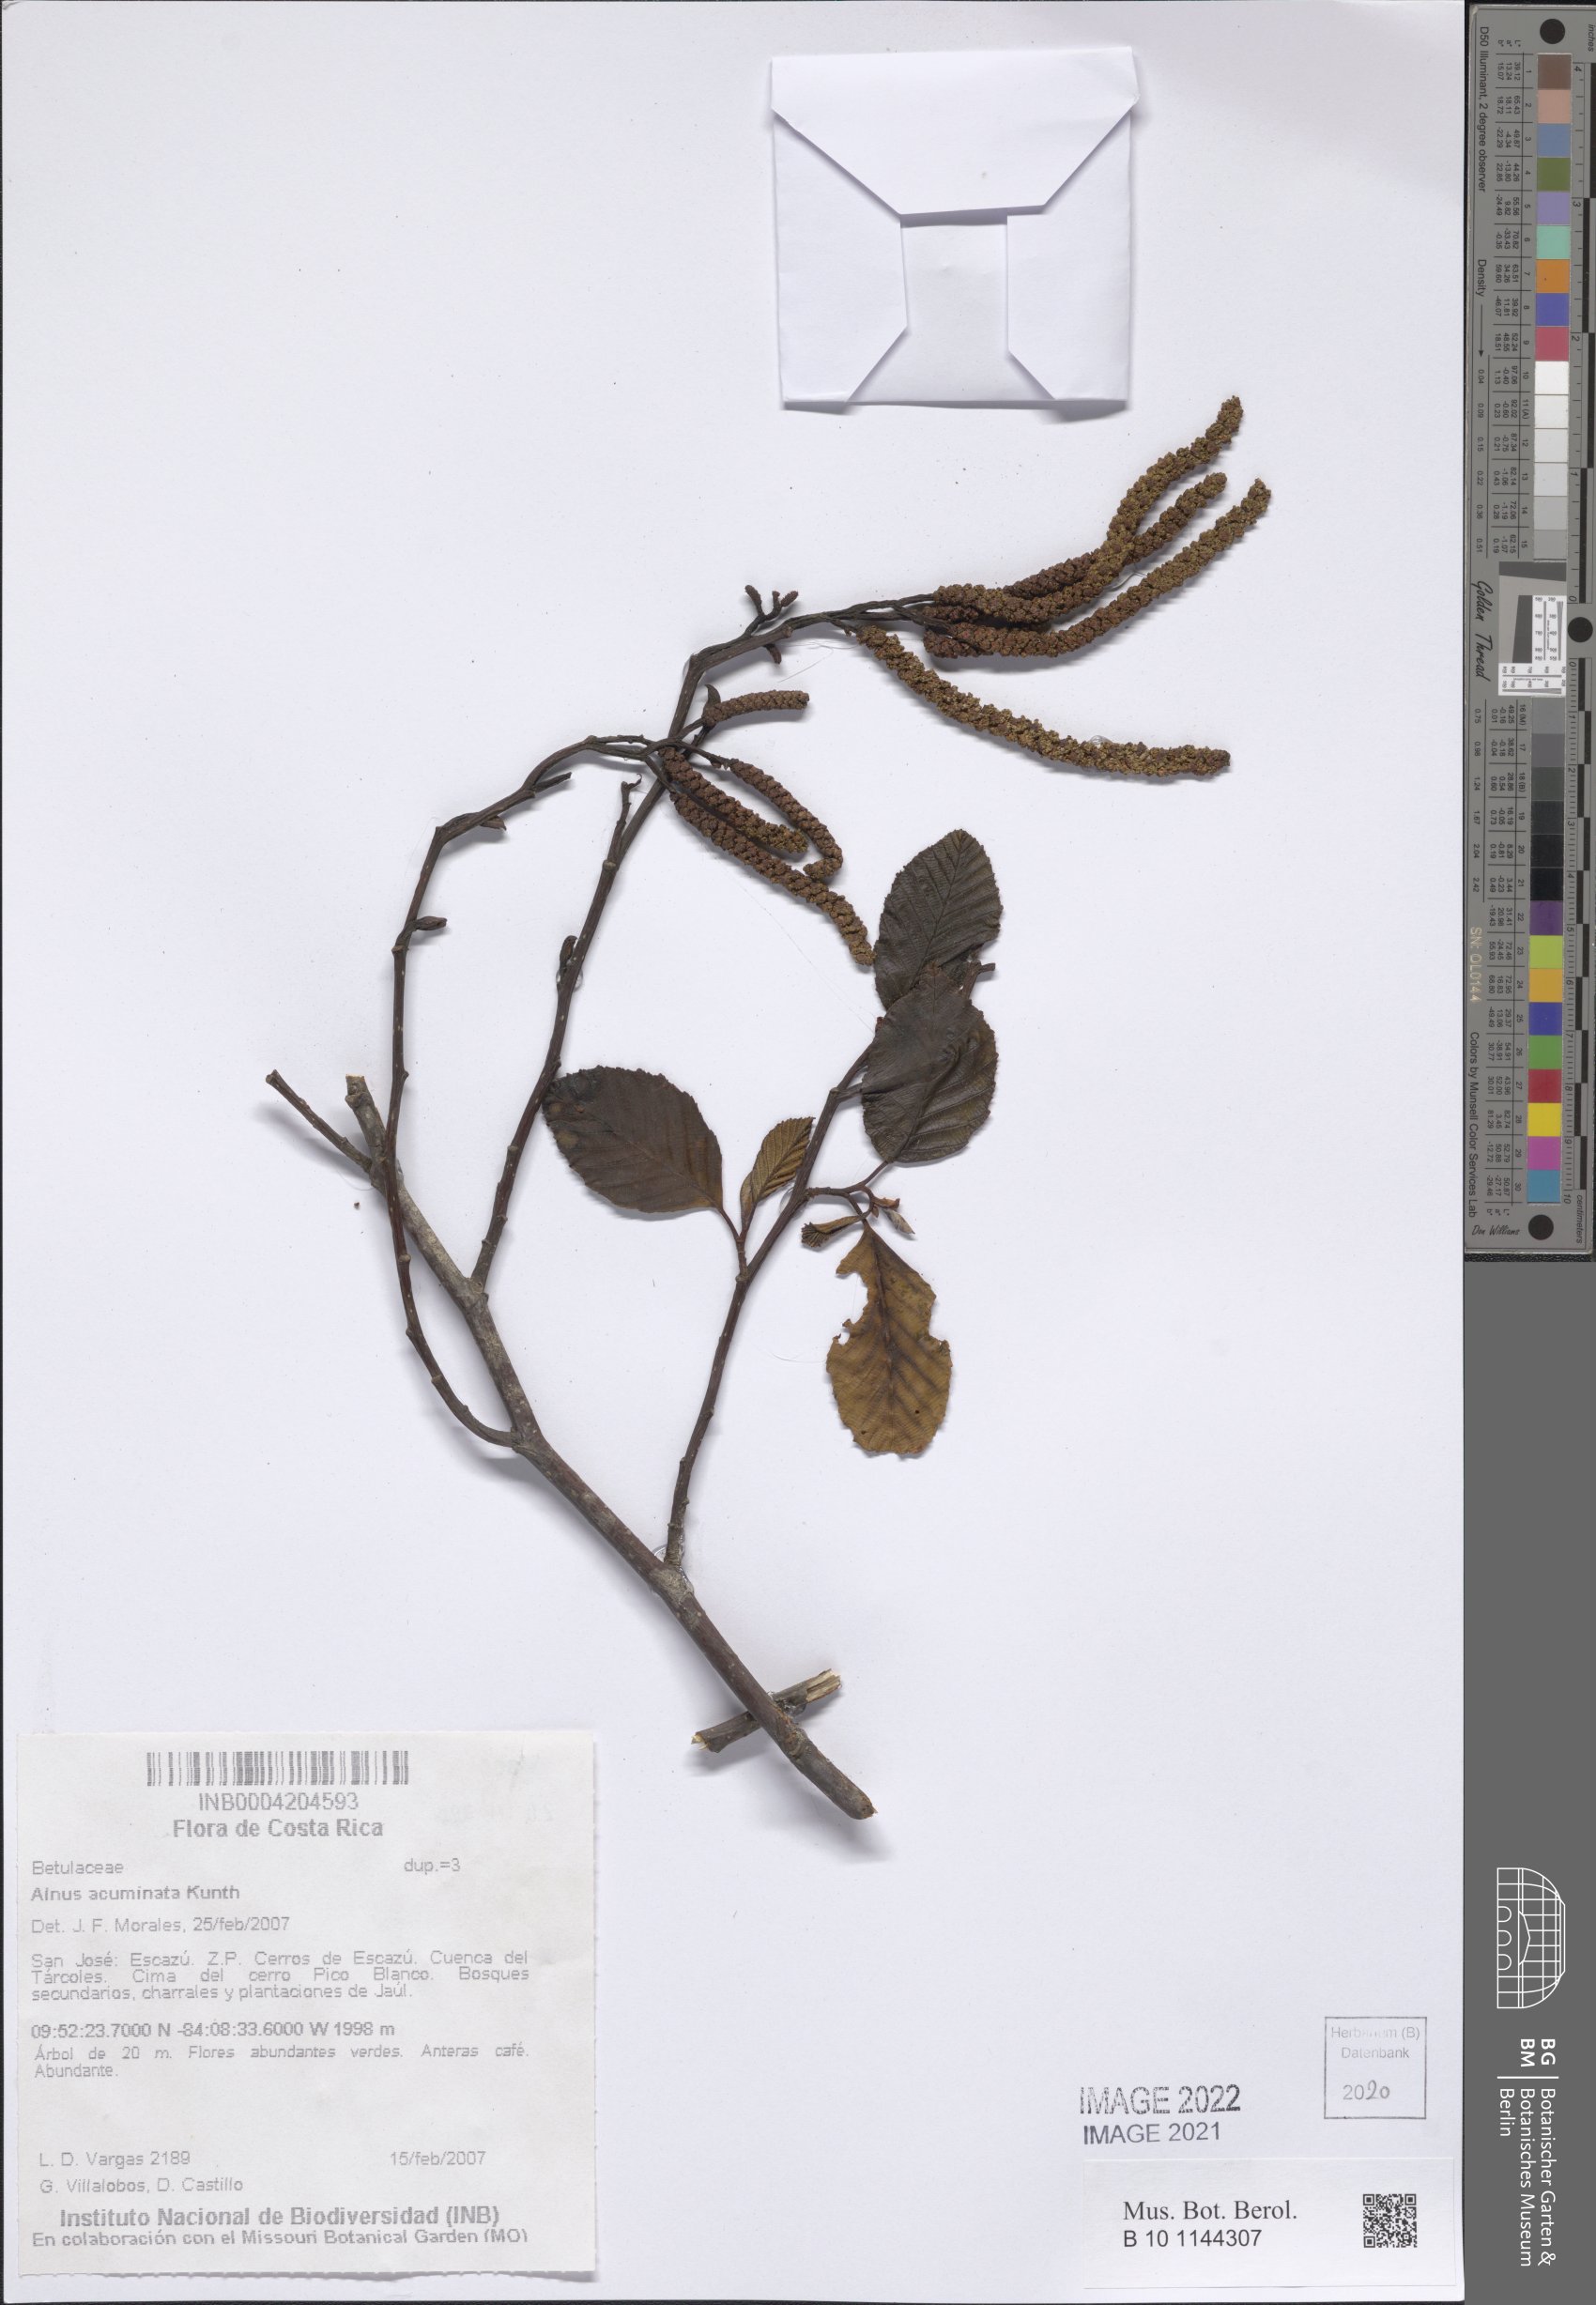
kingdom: Plantae
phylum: Tracheophyta
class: Magnoliopsida
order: Fagales
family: Betulaceae
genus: Alnus
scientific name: Alnus acuminata
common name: Alder
